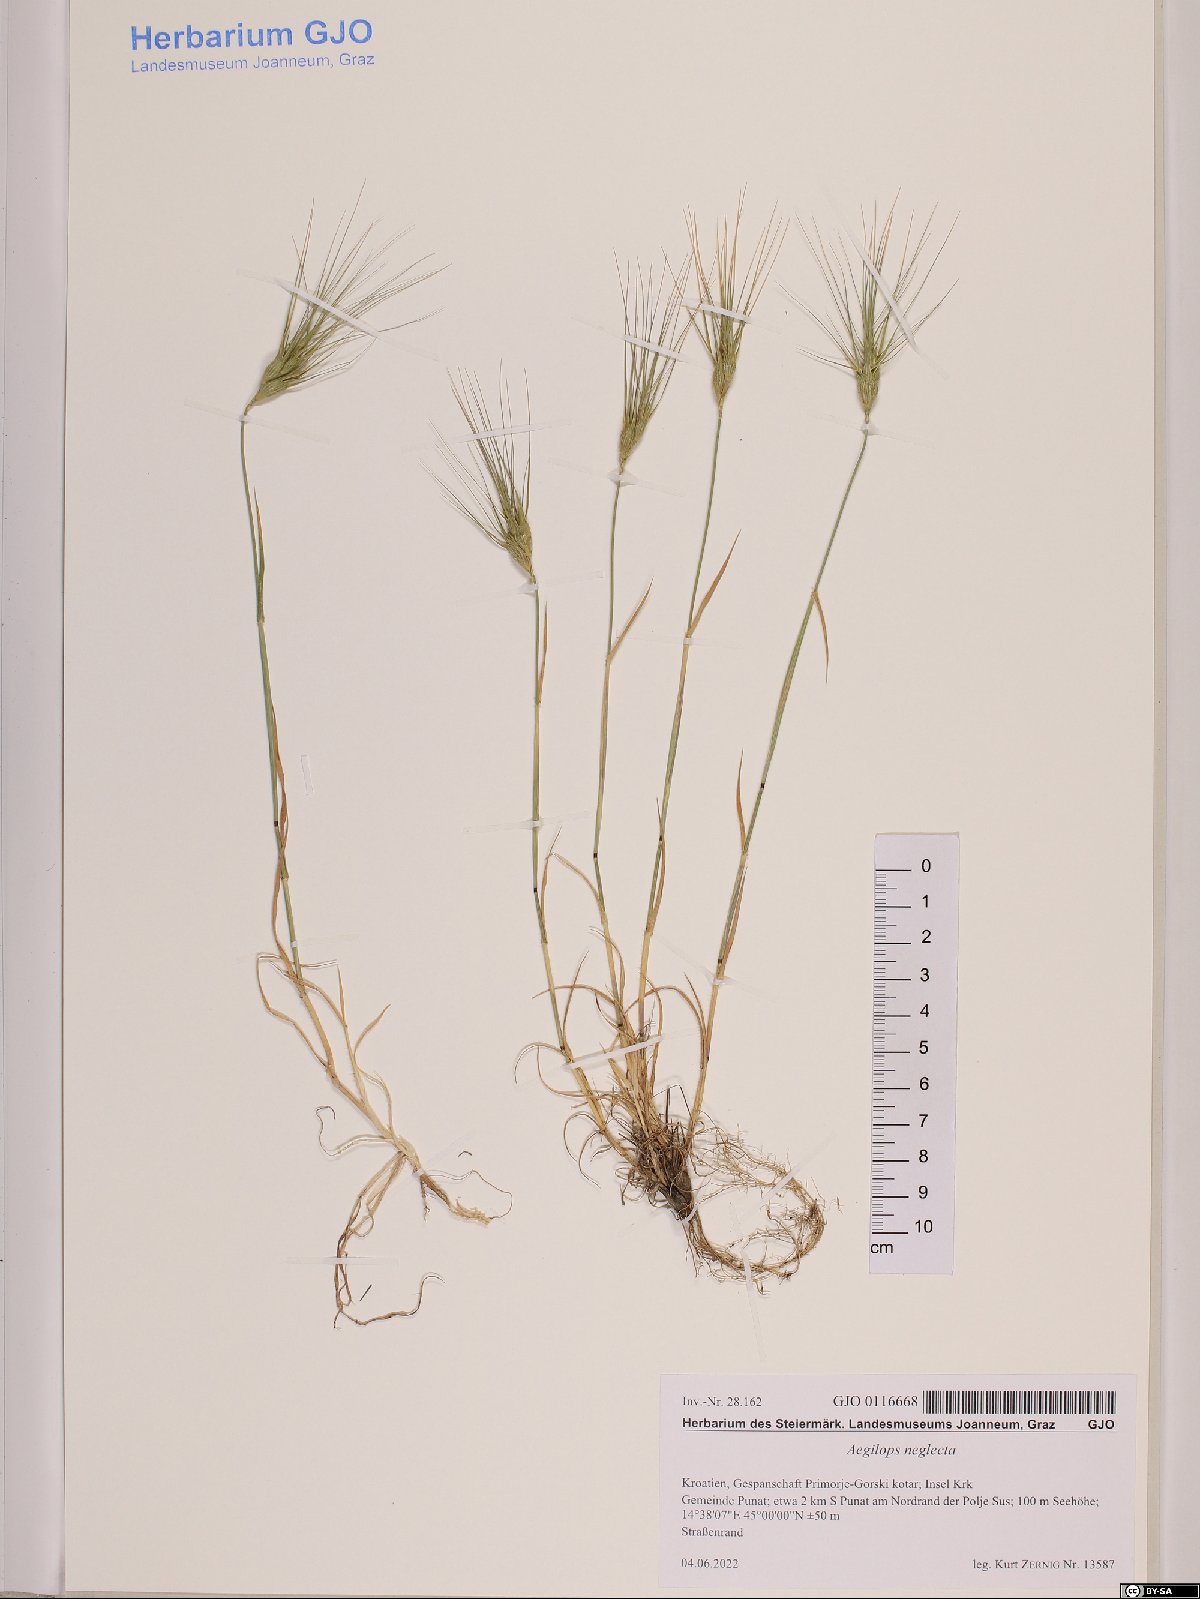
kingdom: Plantae
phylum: Tracheophyta
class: Liliopsida
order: Poales
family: Poaceae
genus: Aegilops
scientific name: Aegilops neglecta
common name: Three-awn goat grass
